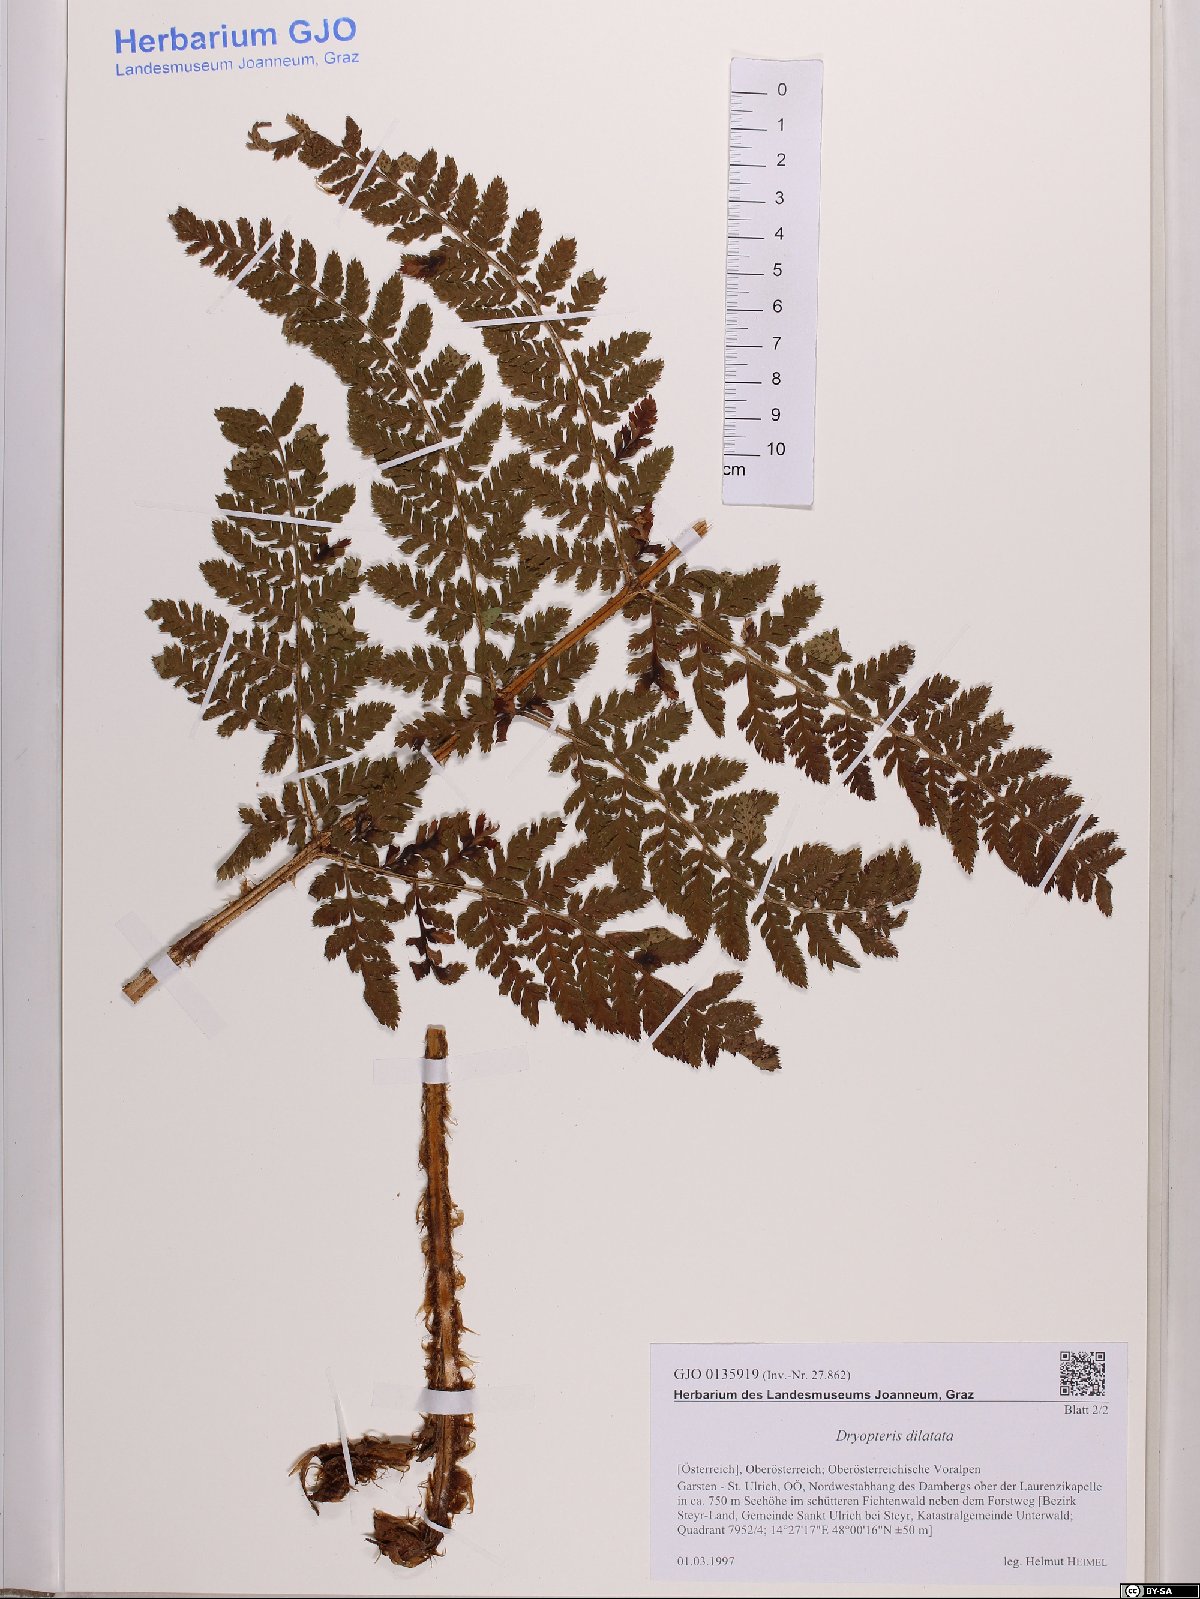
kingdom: Plantae
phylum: Tracheophyta
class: Polypodiopsida
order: Polypodiales
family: Dryopteridaceae
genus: Dryopteris
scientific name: Dryopteris dilatata
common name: Broad buckler-fern
